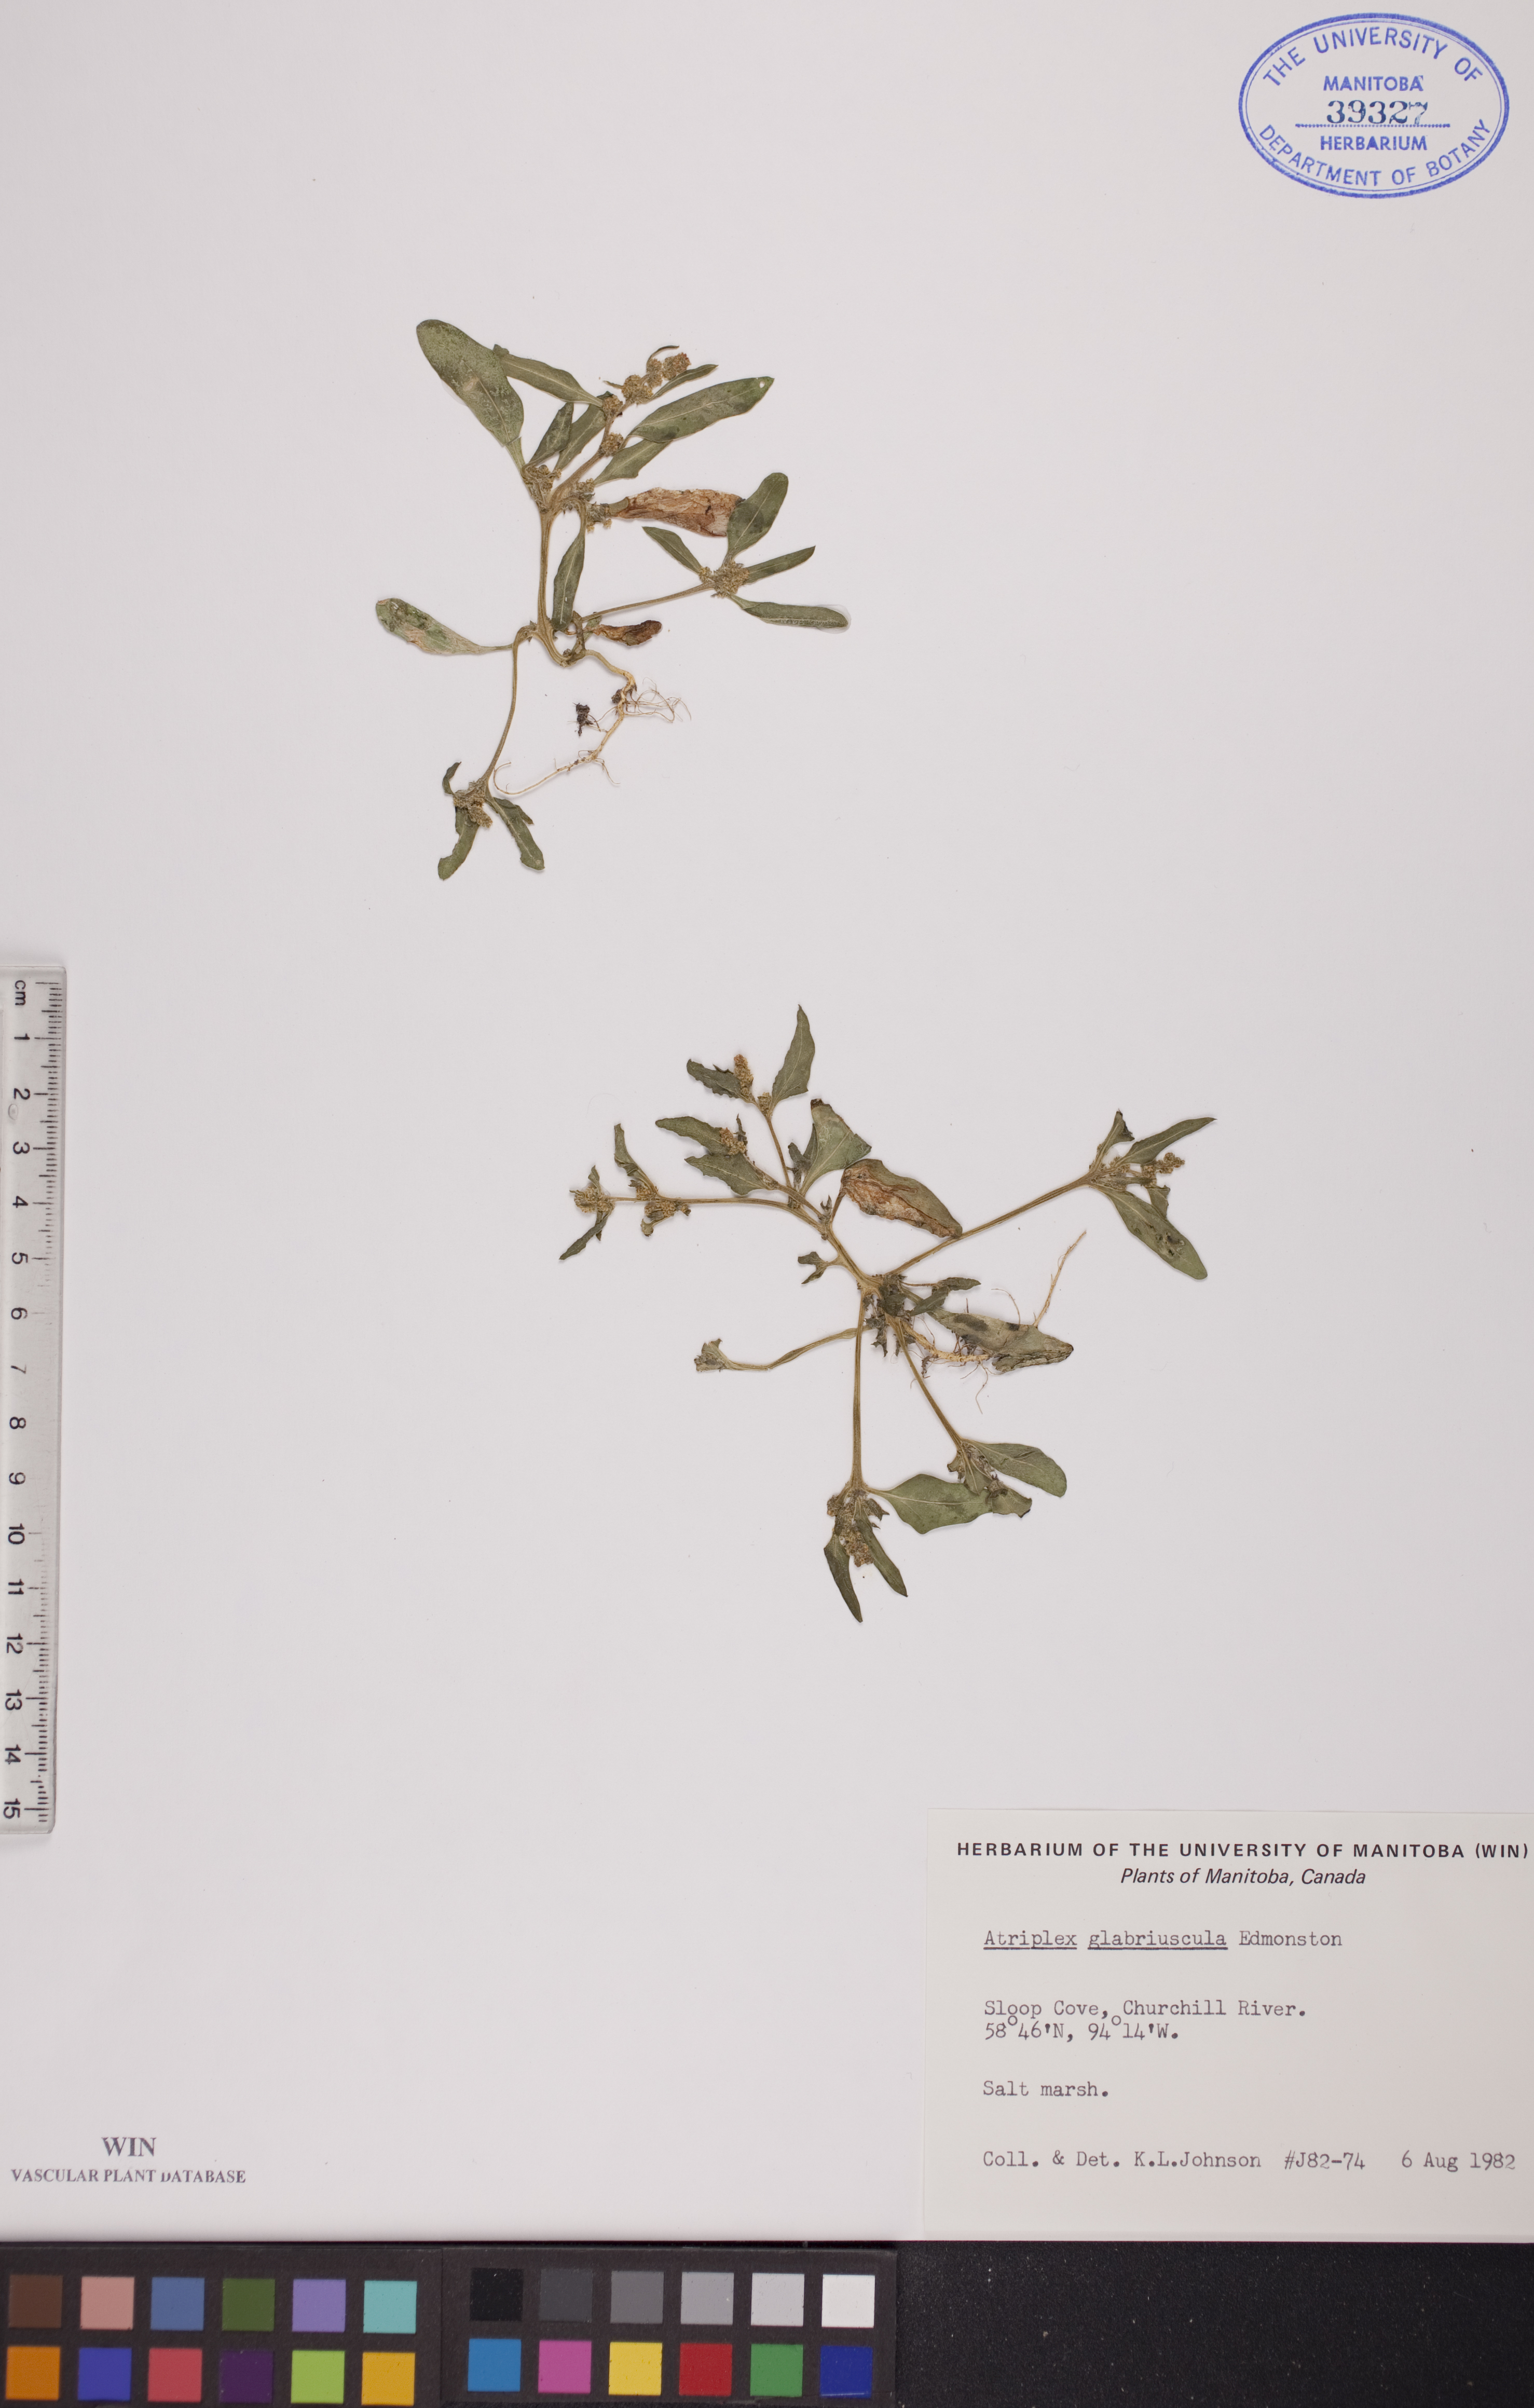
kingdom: Plantae
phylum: Tracheophyta
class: Magnoliopsida
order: Caryophyllales
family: Amaranthaceae
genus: Atriplex
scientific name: Atriplex glabriuscula
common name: Babington's orache
